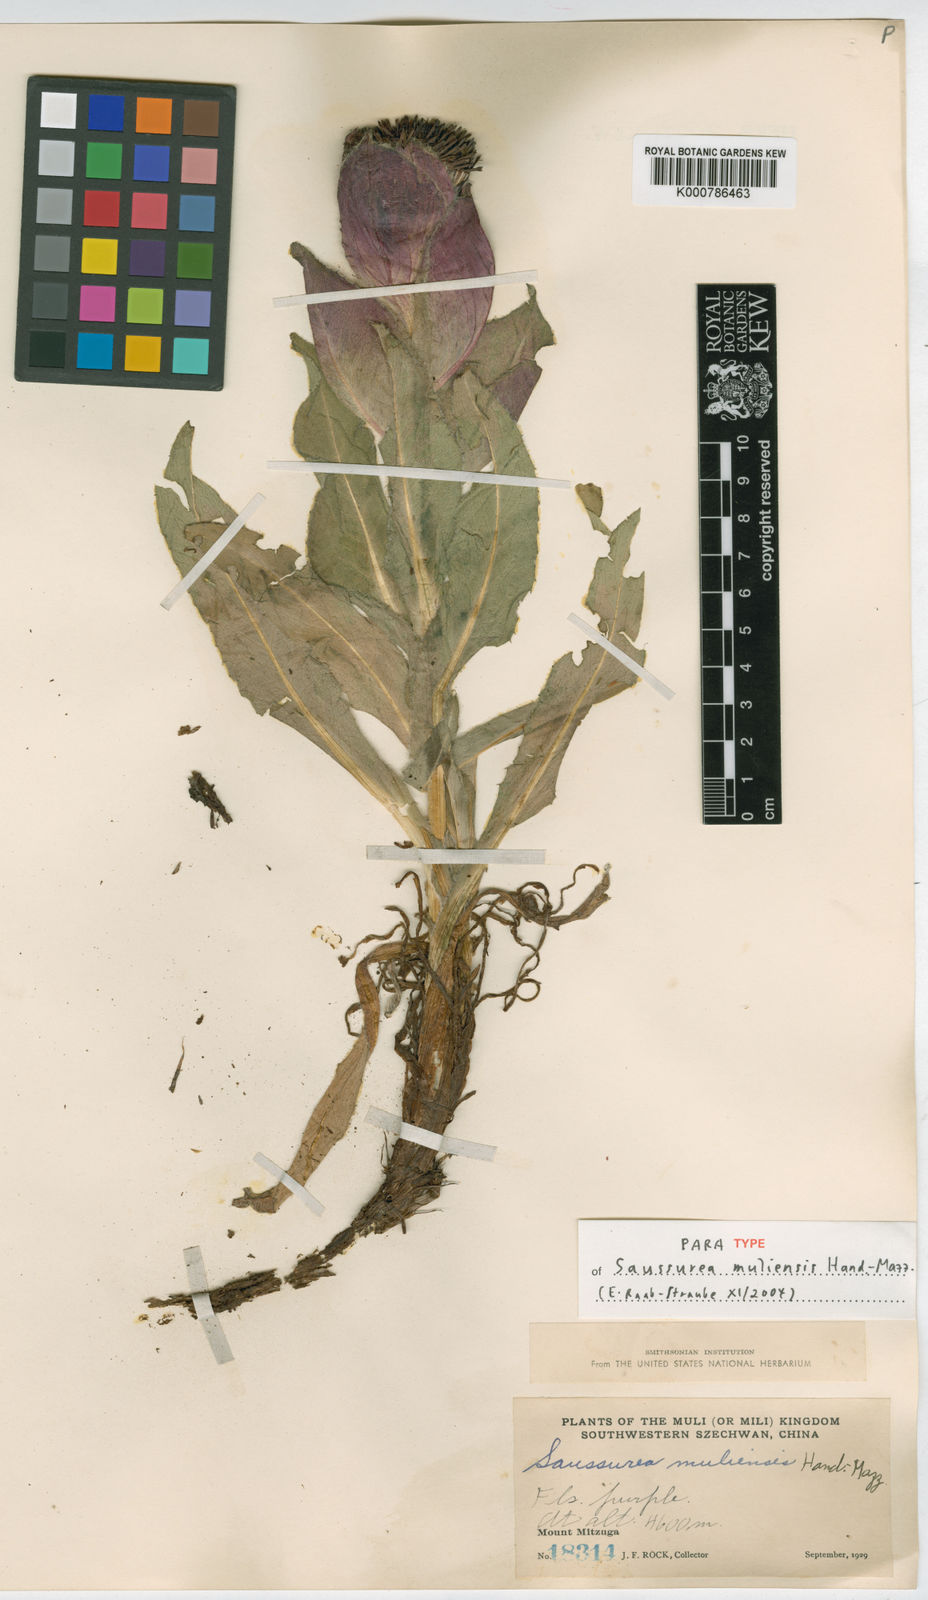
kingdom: Plantae
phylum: Tracheophyta
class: Magnoliopsida
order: Asterales
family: Asteraceae
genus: Saussurea
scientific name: Saussurea muliensis
